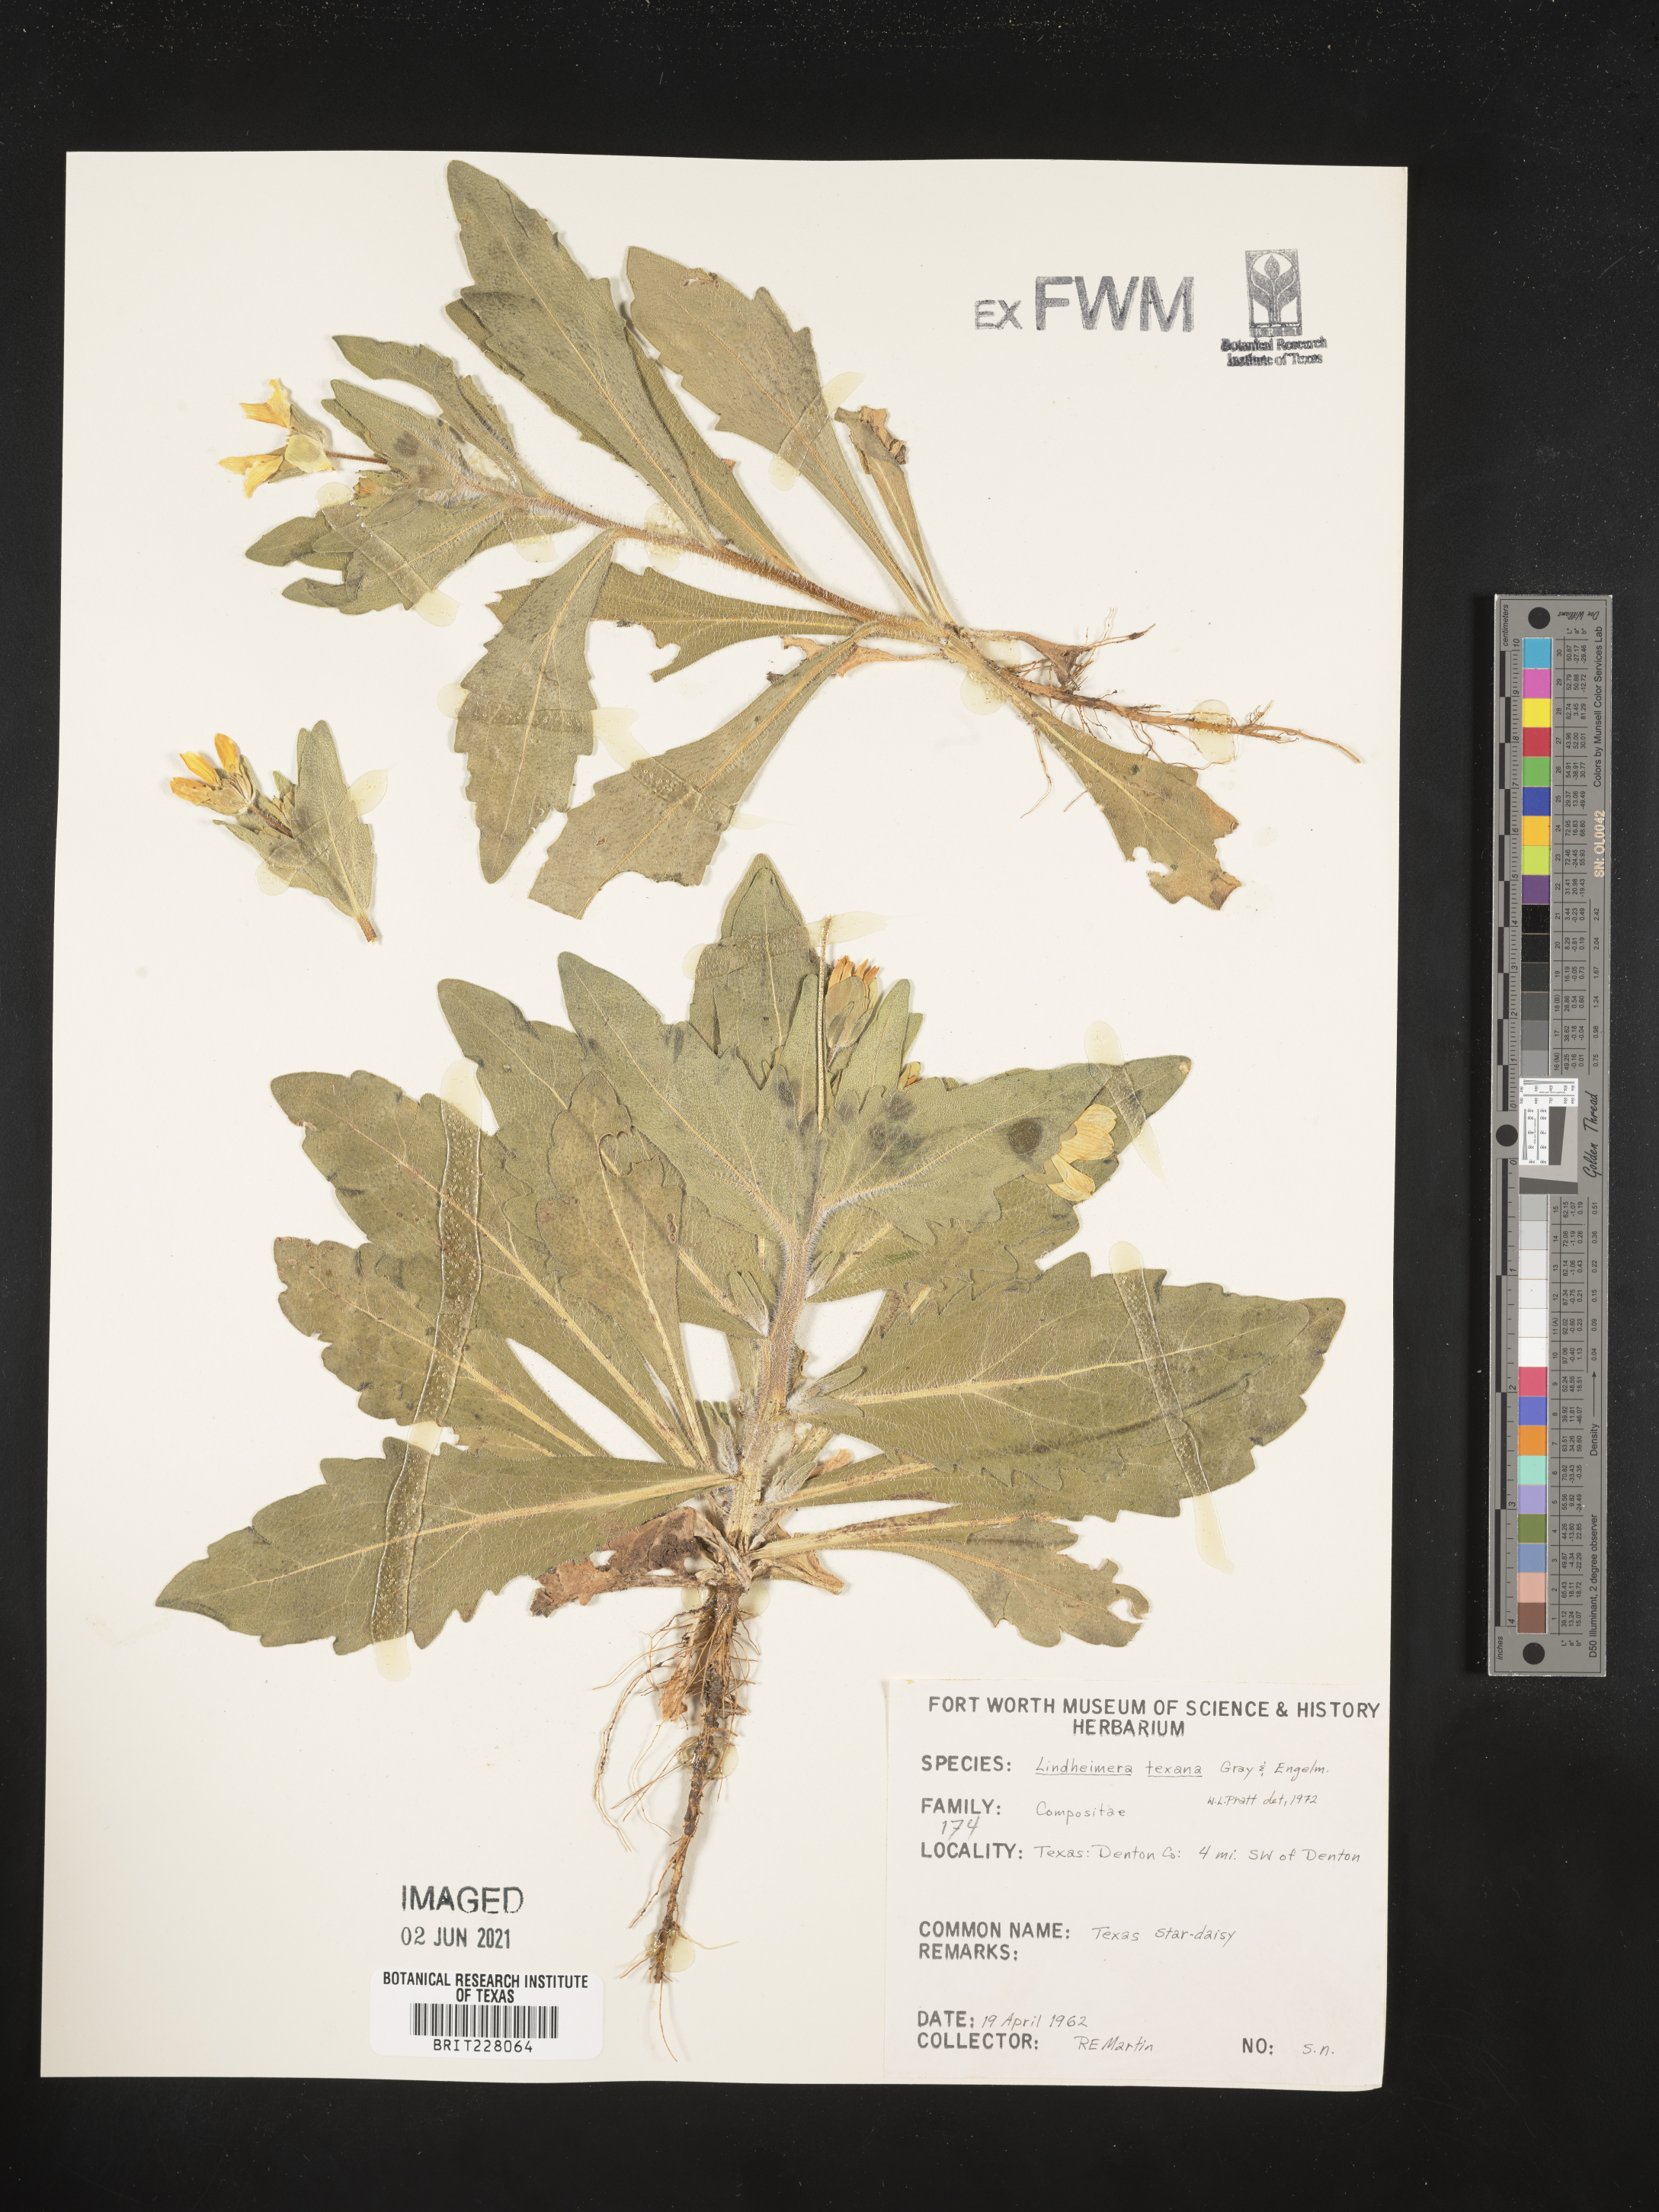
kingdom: Plantae
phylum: Tracheophyta
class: Magnoliopsida
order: Asterales
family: Asteraceae
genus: Lindheimera
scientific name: Lindheimera texana
